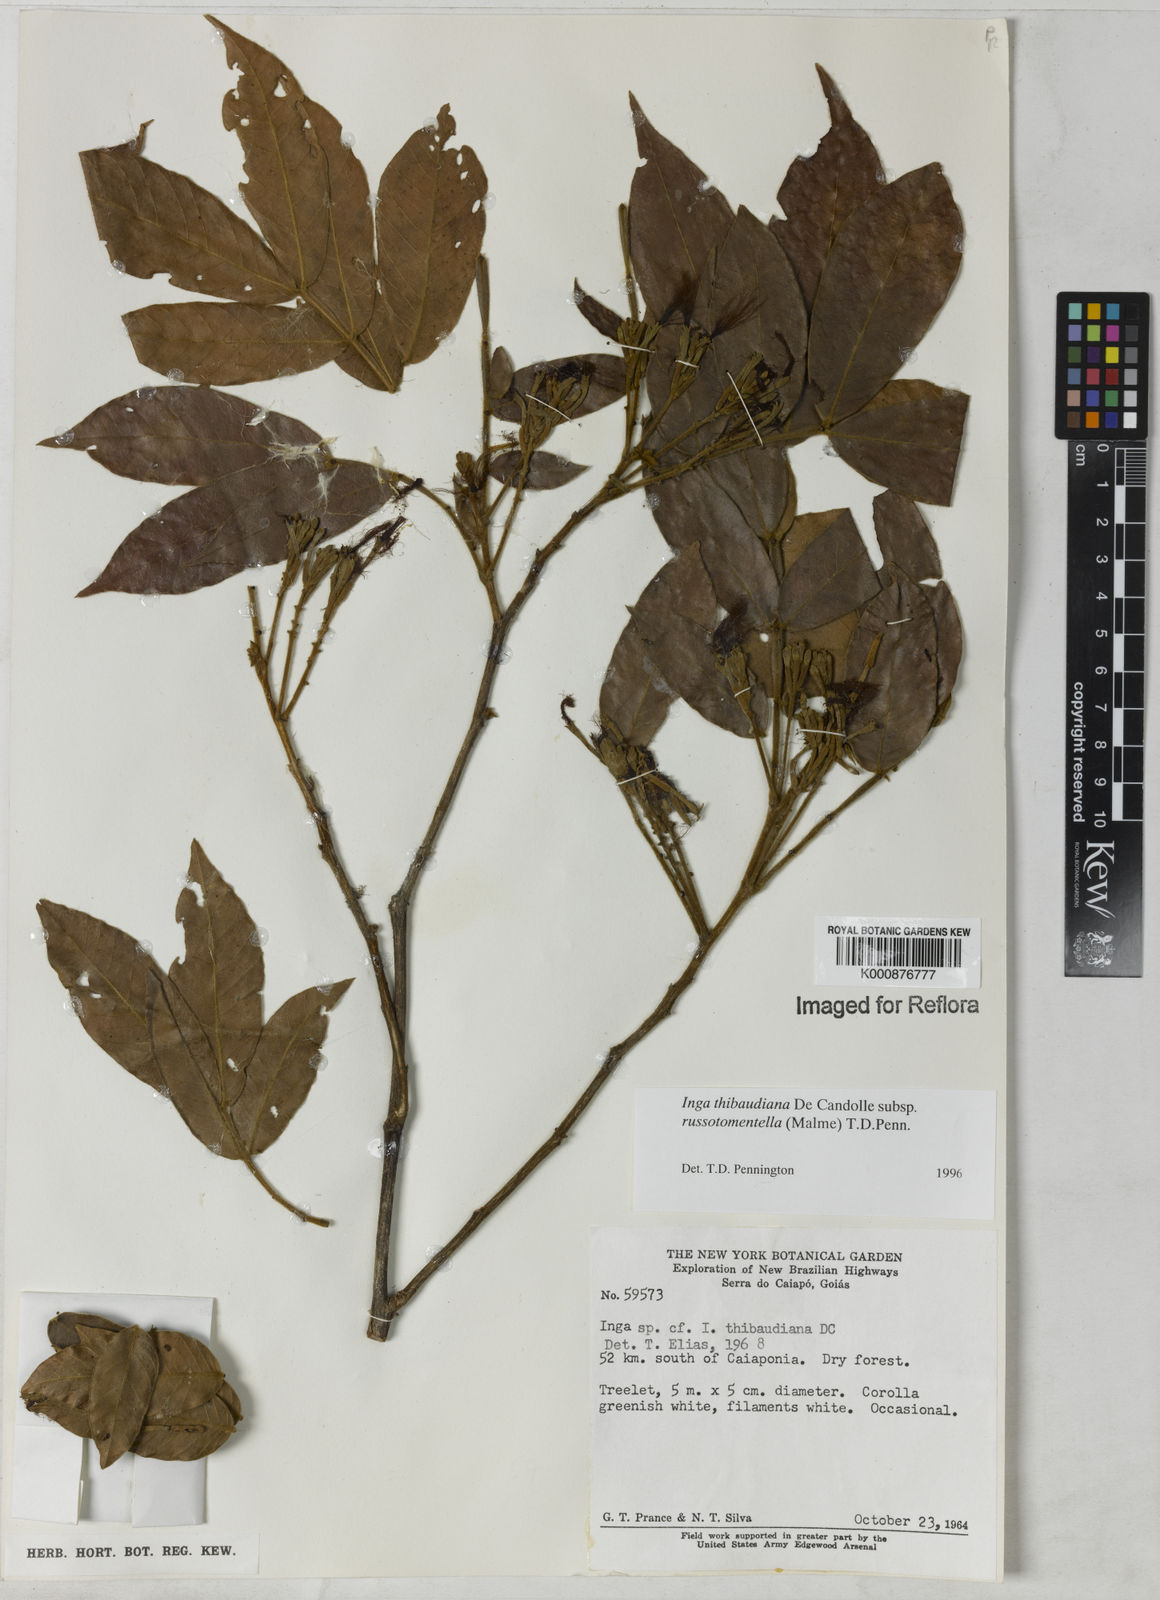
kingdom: Plantae
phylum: Tracheophyta
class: Magnoliopsida
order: Fabales
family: Fabaceae
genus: Inga
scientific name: Inga thibaudiana
